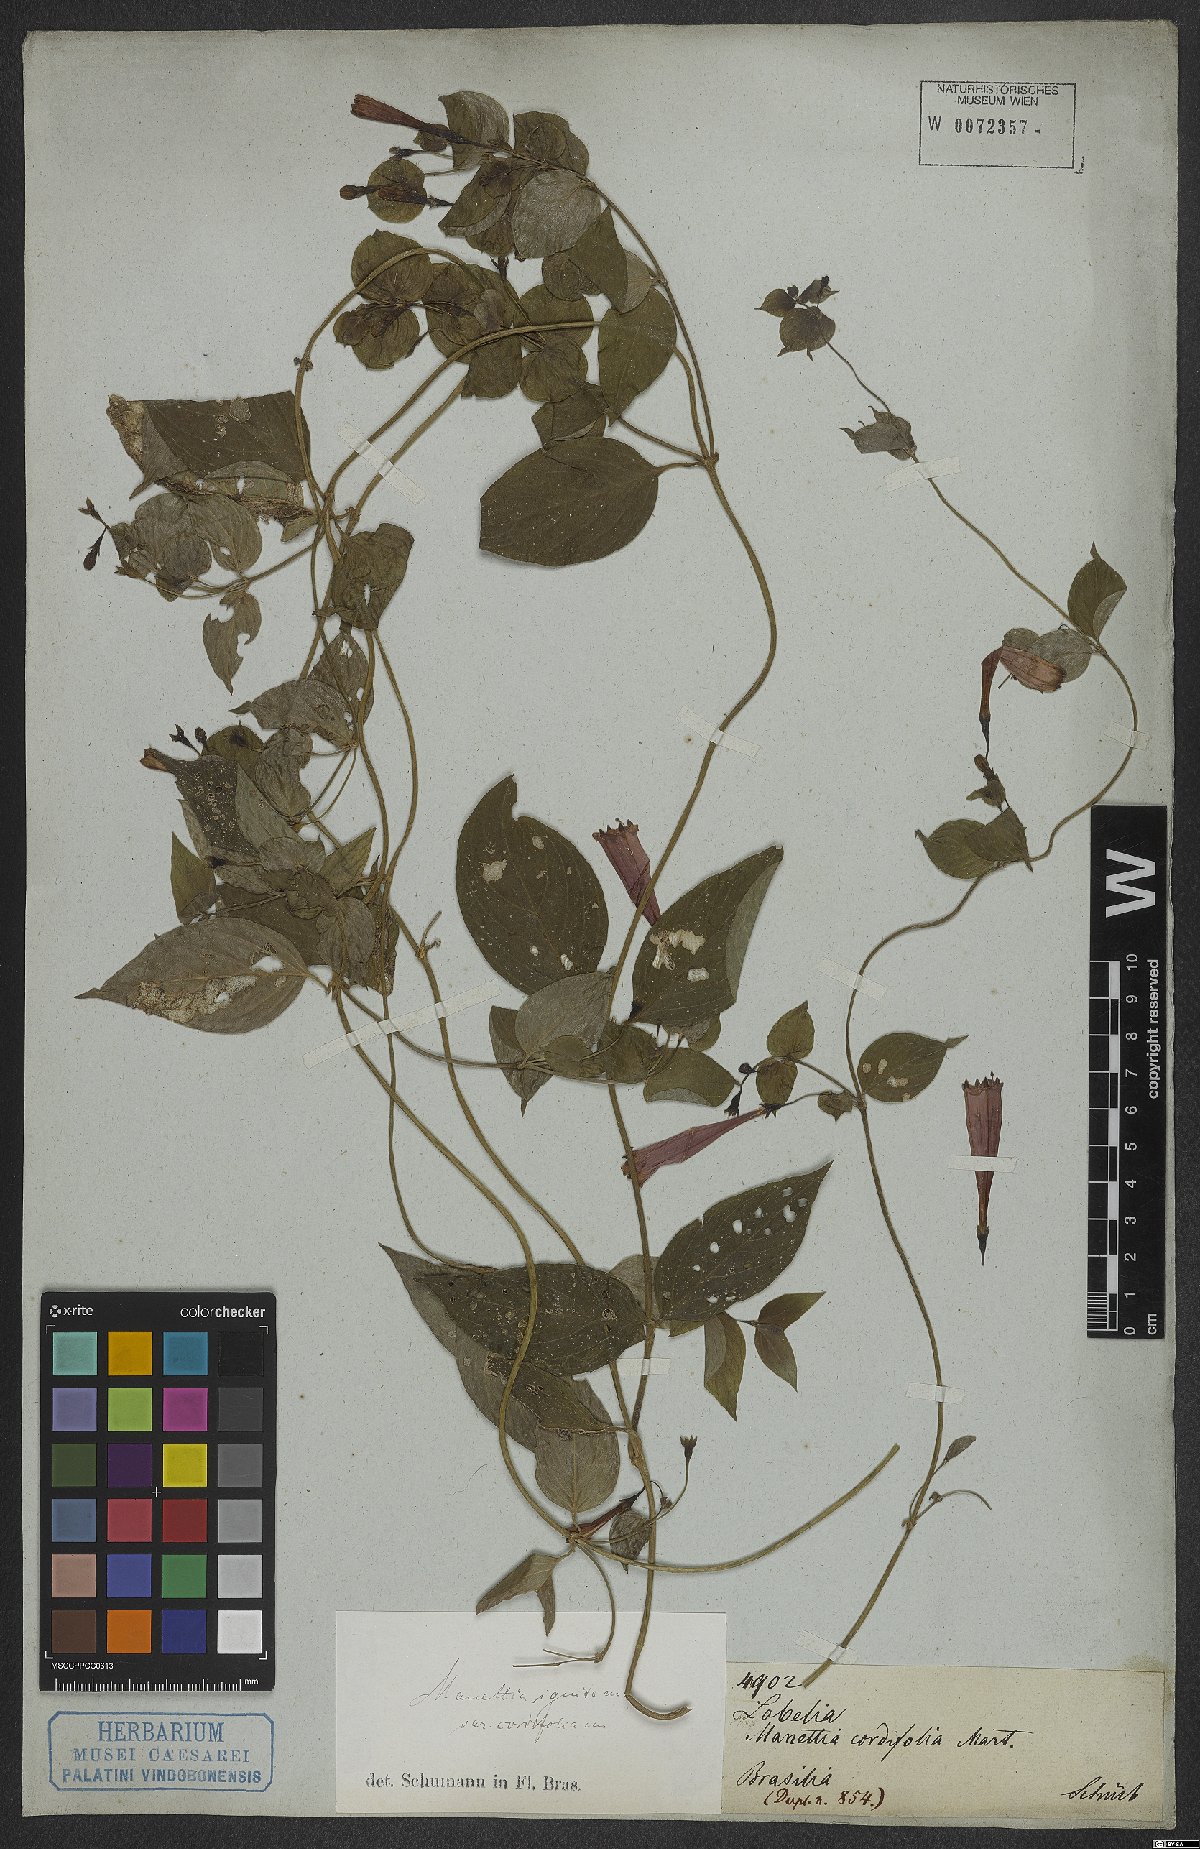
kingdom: Plantae
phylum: Tracheophyta
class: Magnoliopsida
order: Gentianales
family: Rubiaceae
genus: Manettia
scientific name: Manettia cordifolia
